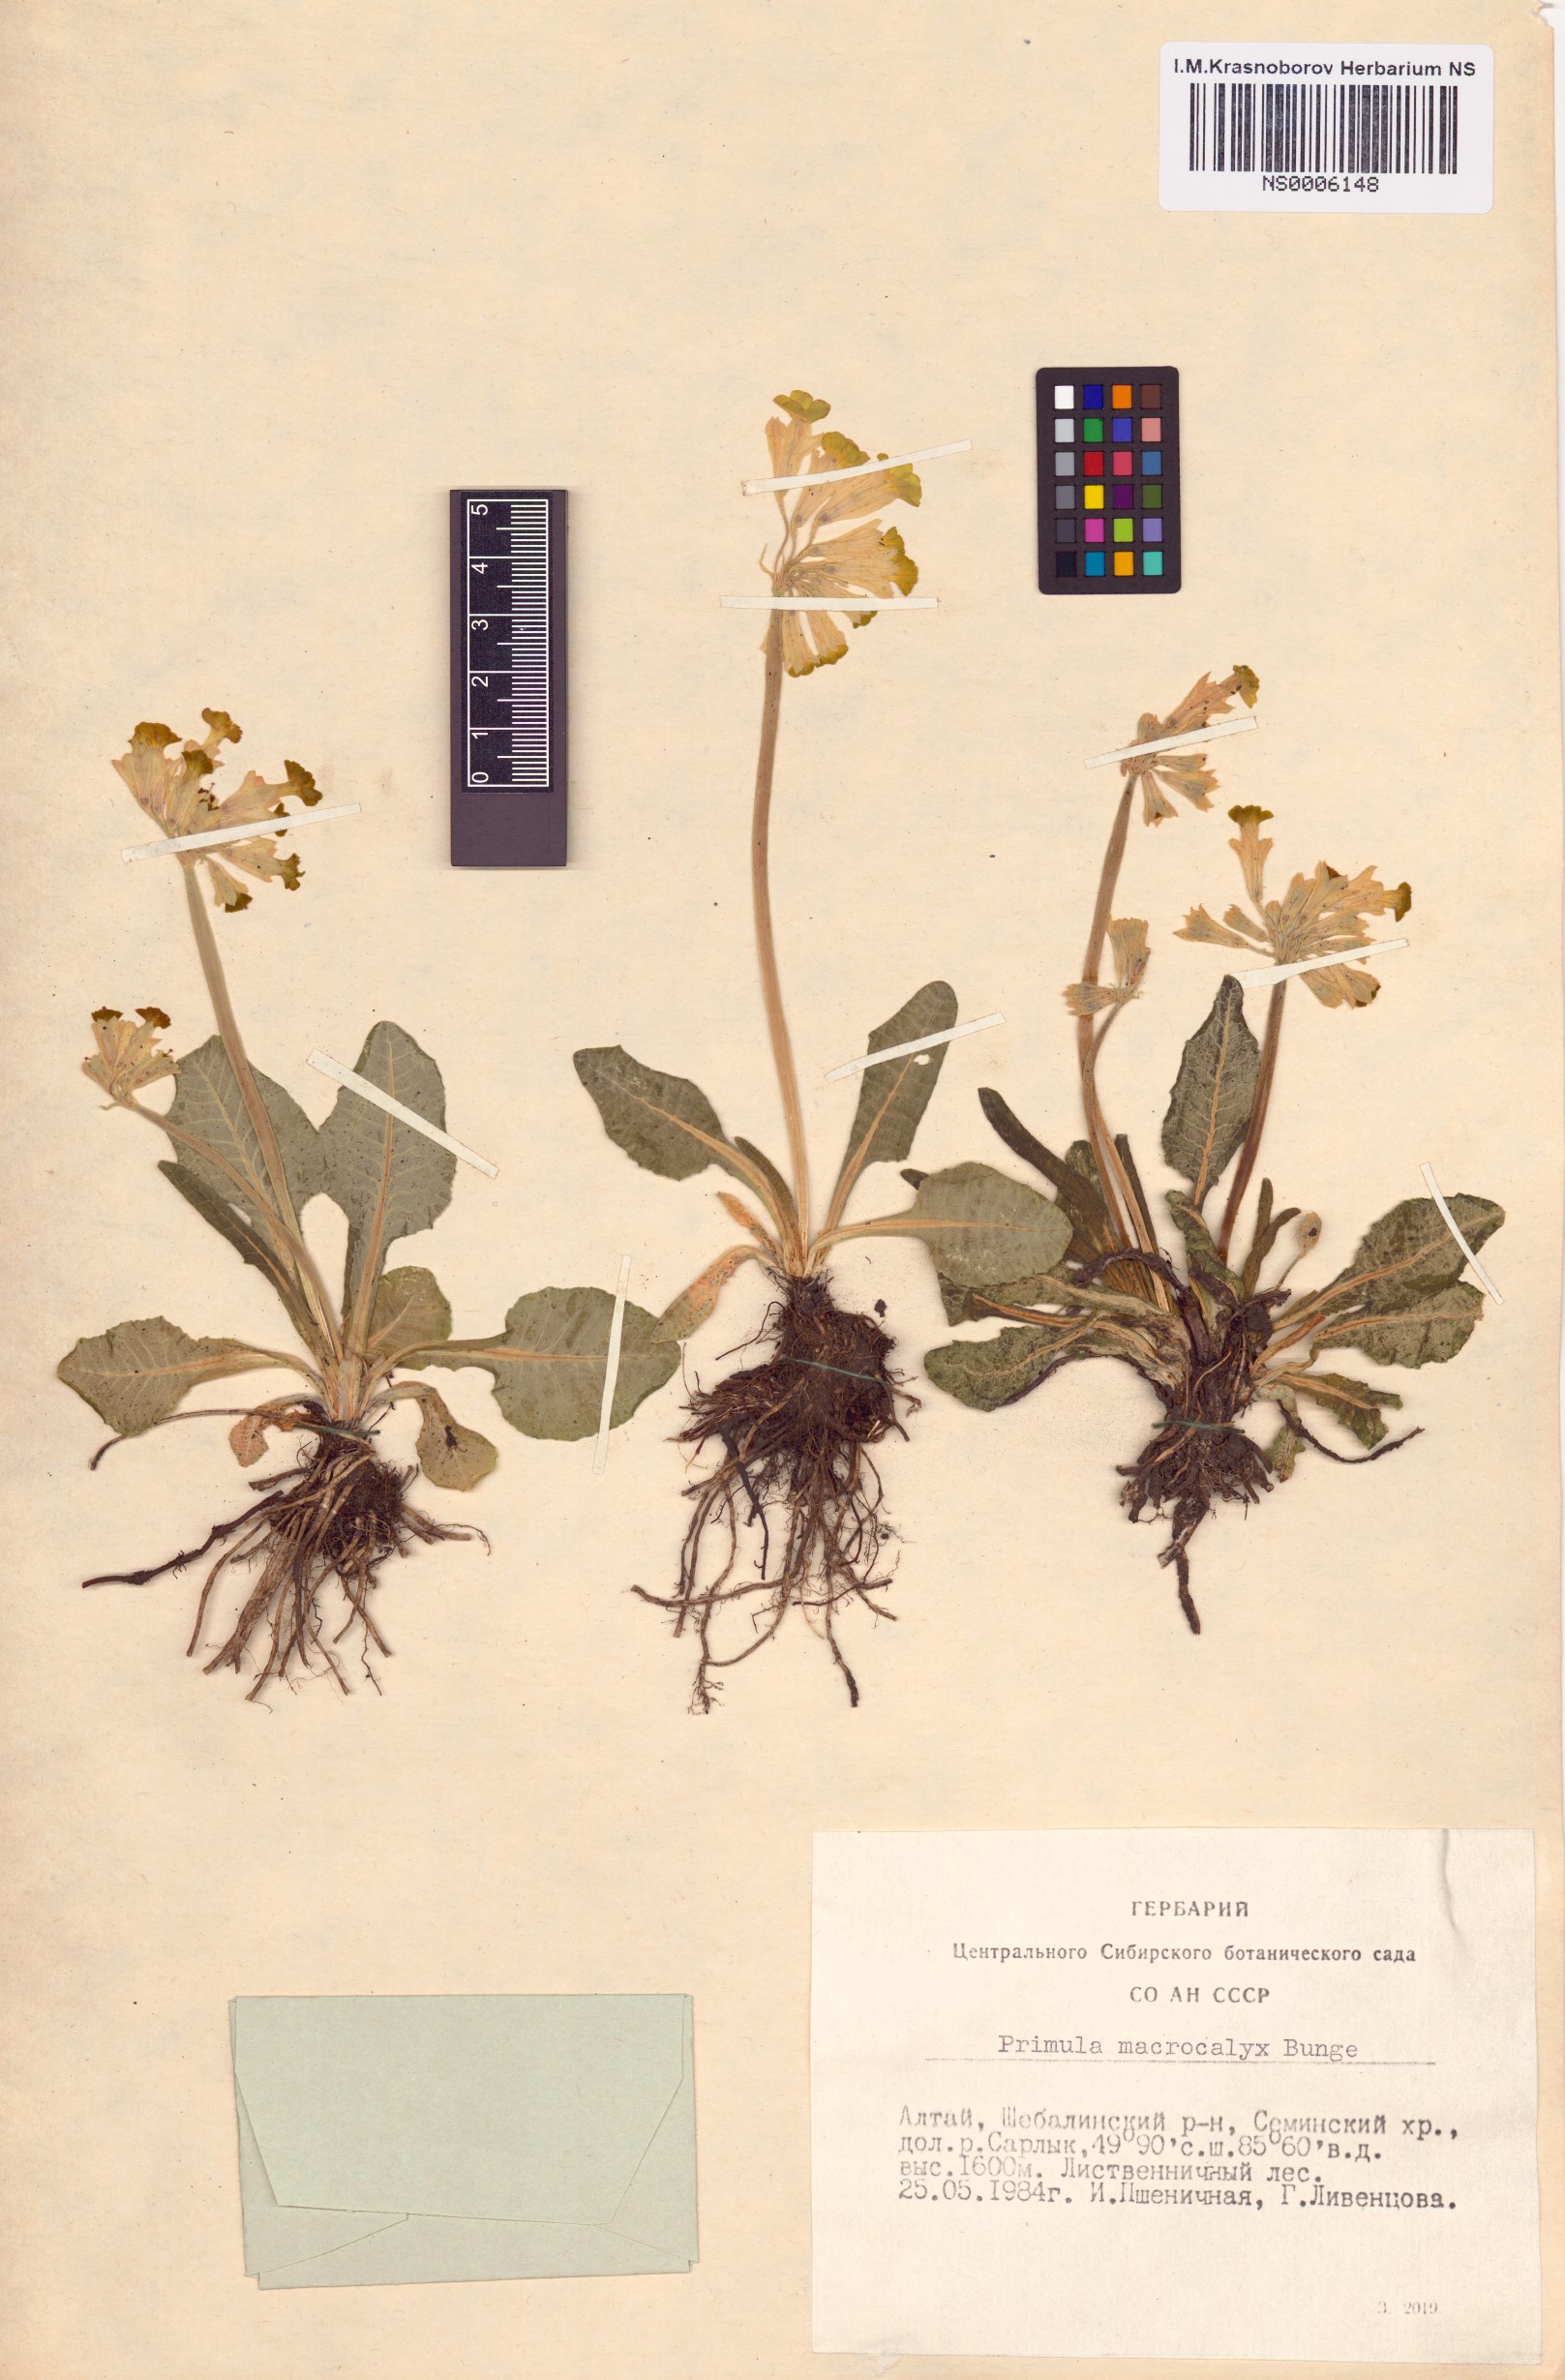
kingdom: Plantae
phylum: Tracheophyta
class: Magnoliopsida
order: Ericales
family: Primulaceae
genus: Primula
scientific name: Primula veris
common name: Cowslip
